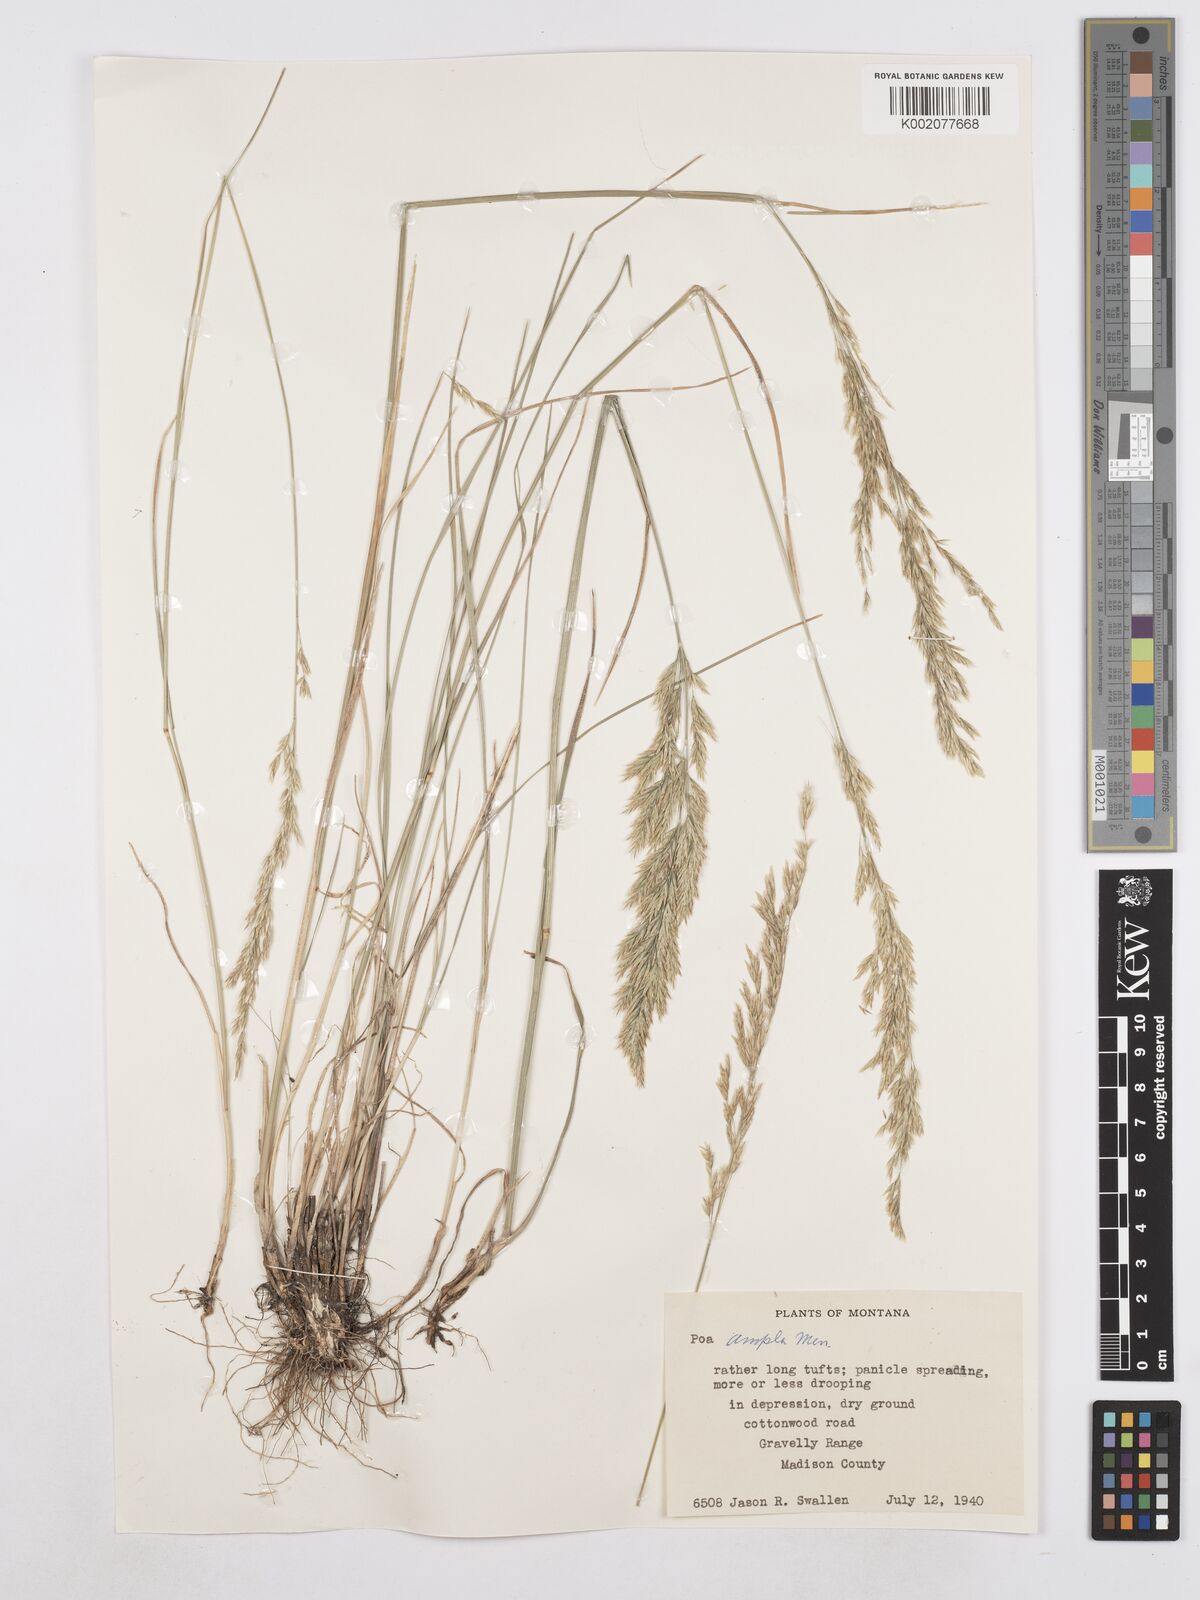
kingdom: Plantae
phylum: Tracheophyta
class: Liliopsida
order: Poales
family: Poaceae
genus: Poa
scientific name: Poa secunda
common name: Sandberg bluegrass
